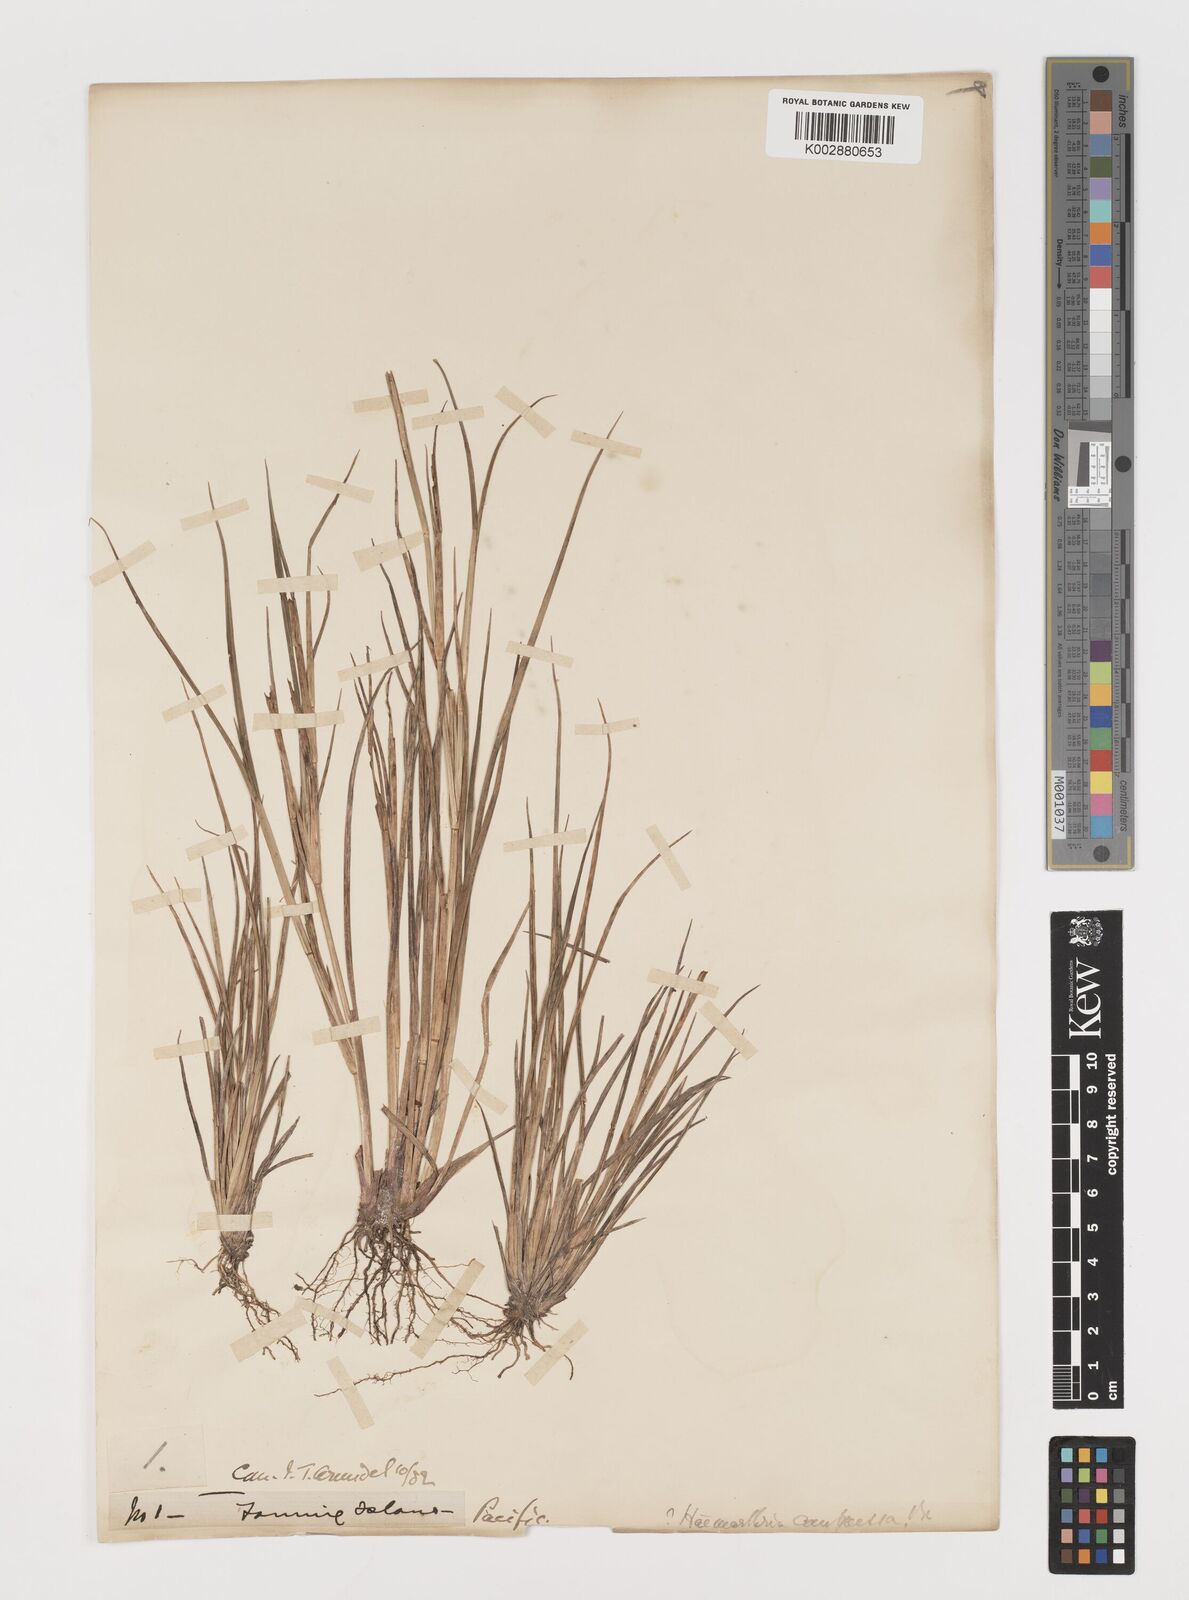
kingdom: Plantae
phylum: Tracheophyta
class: Liliopsida
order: Poales
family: Poaceae
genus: Lepturus
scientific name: Lepturus
